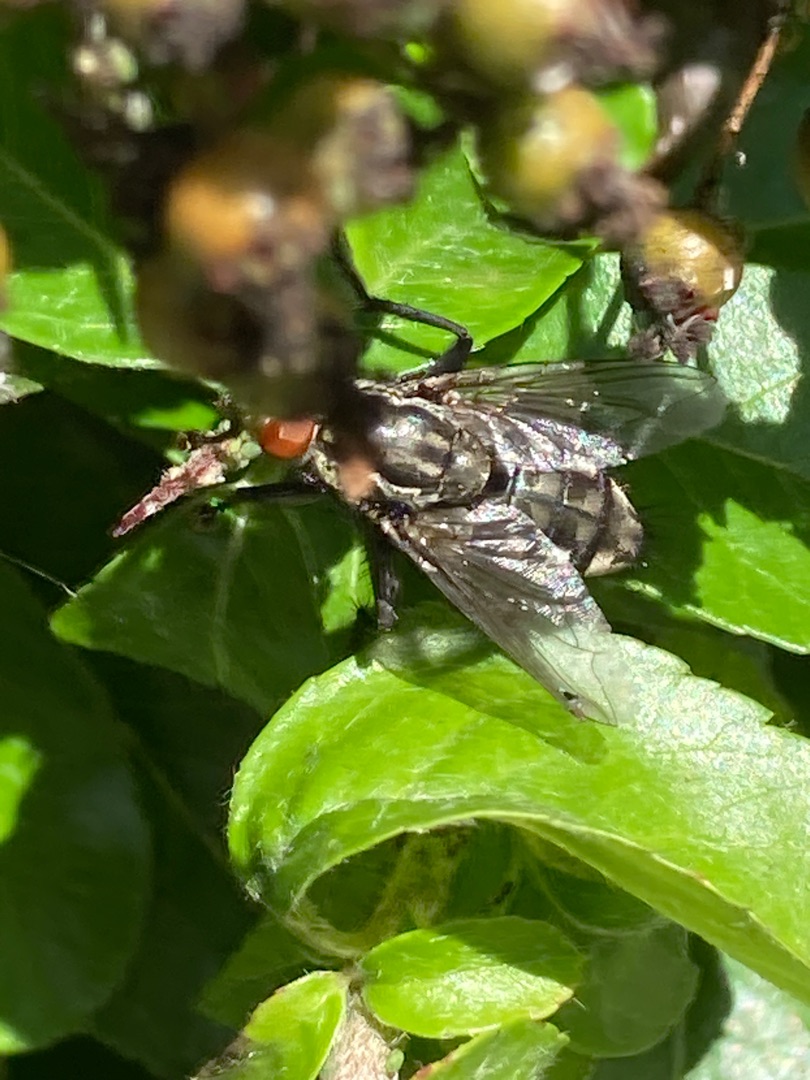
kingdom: Animalia
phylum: Arthropoda
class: Insecta
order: Diptera
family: Sarcophagidae
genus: Sarcophaga
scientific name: Sarcophaga
